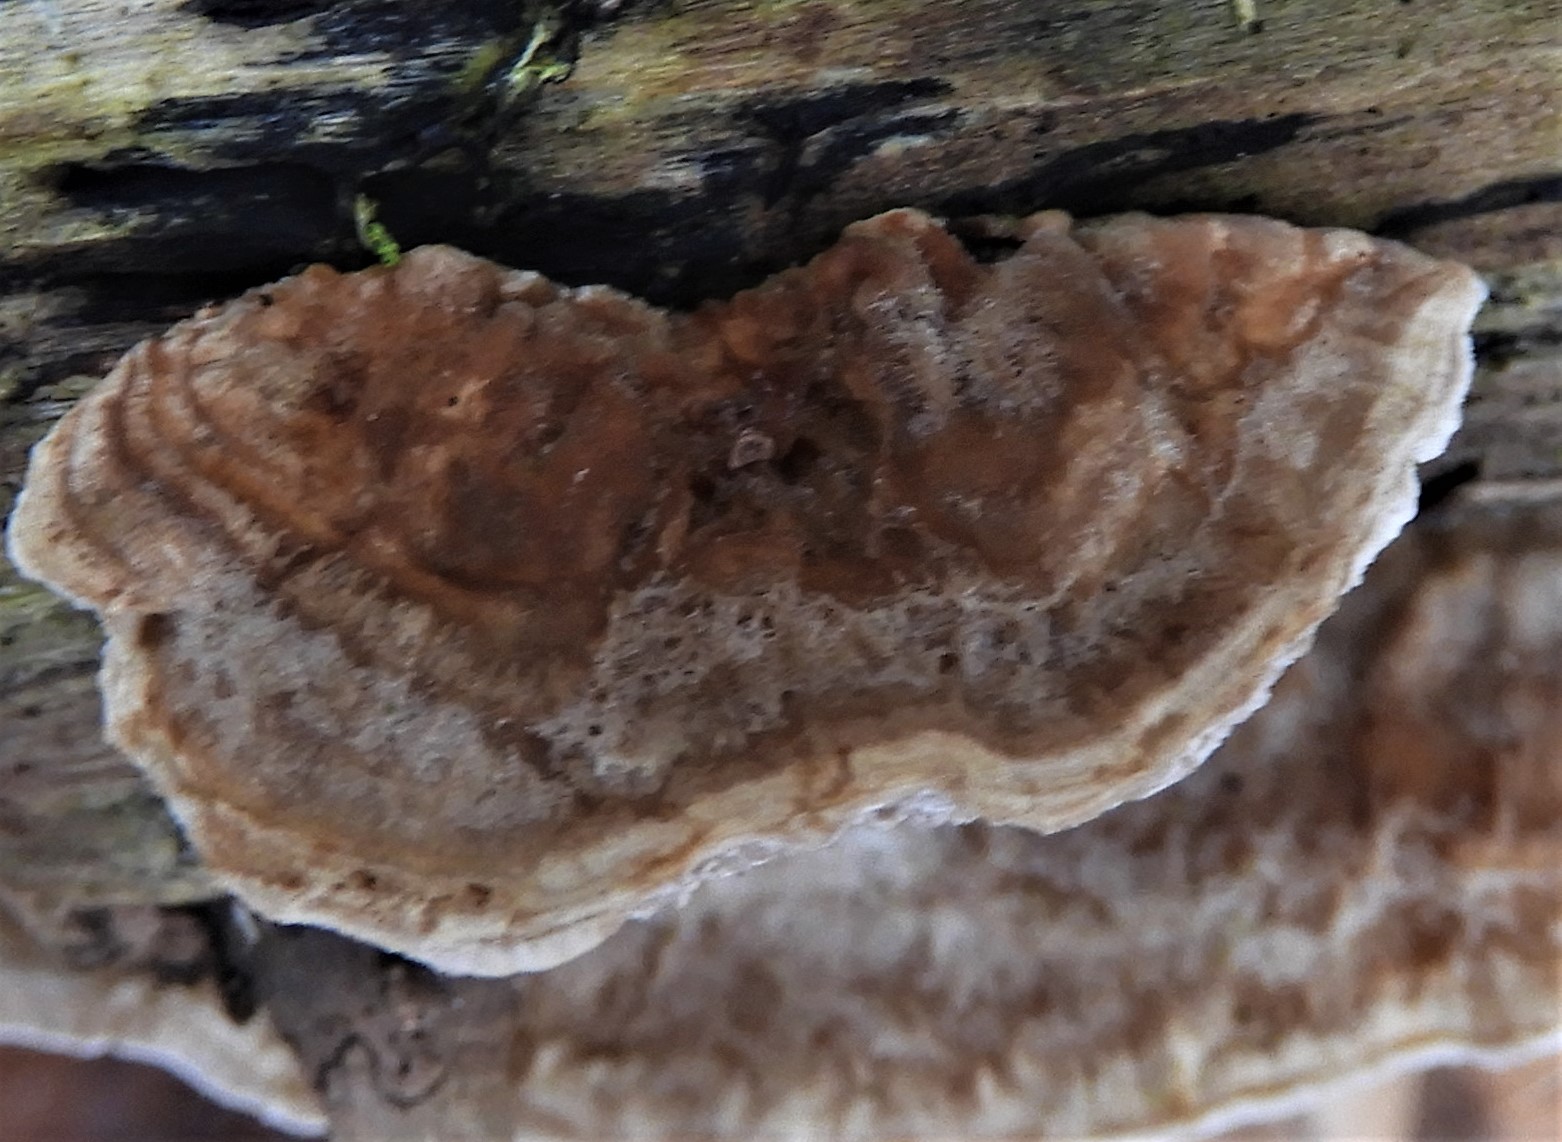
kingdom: Fungi
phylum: Basidiomycota
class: Agaricomycetes
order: Polyporales
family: Phanerochaetaceae
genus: Bjerkandera
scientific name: Bjerkandera fumosa
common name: grågul sodporesvamp
